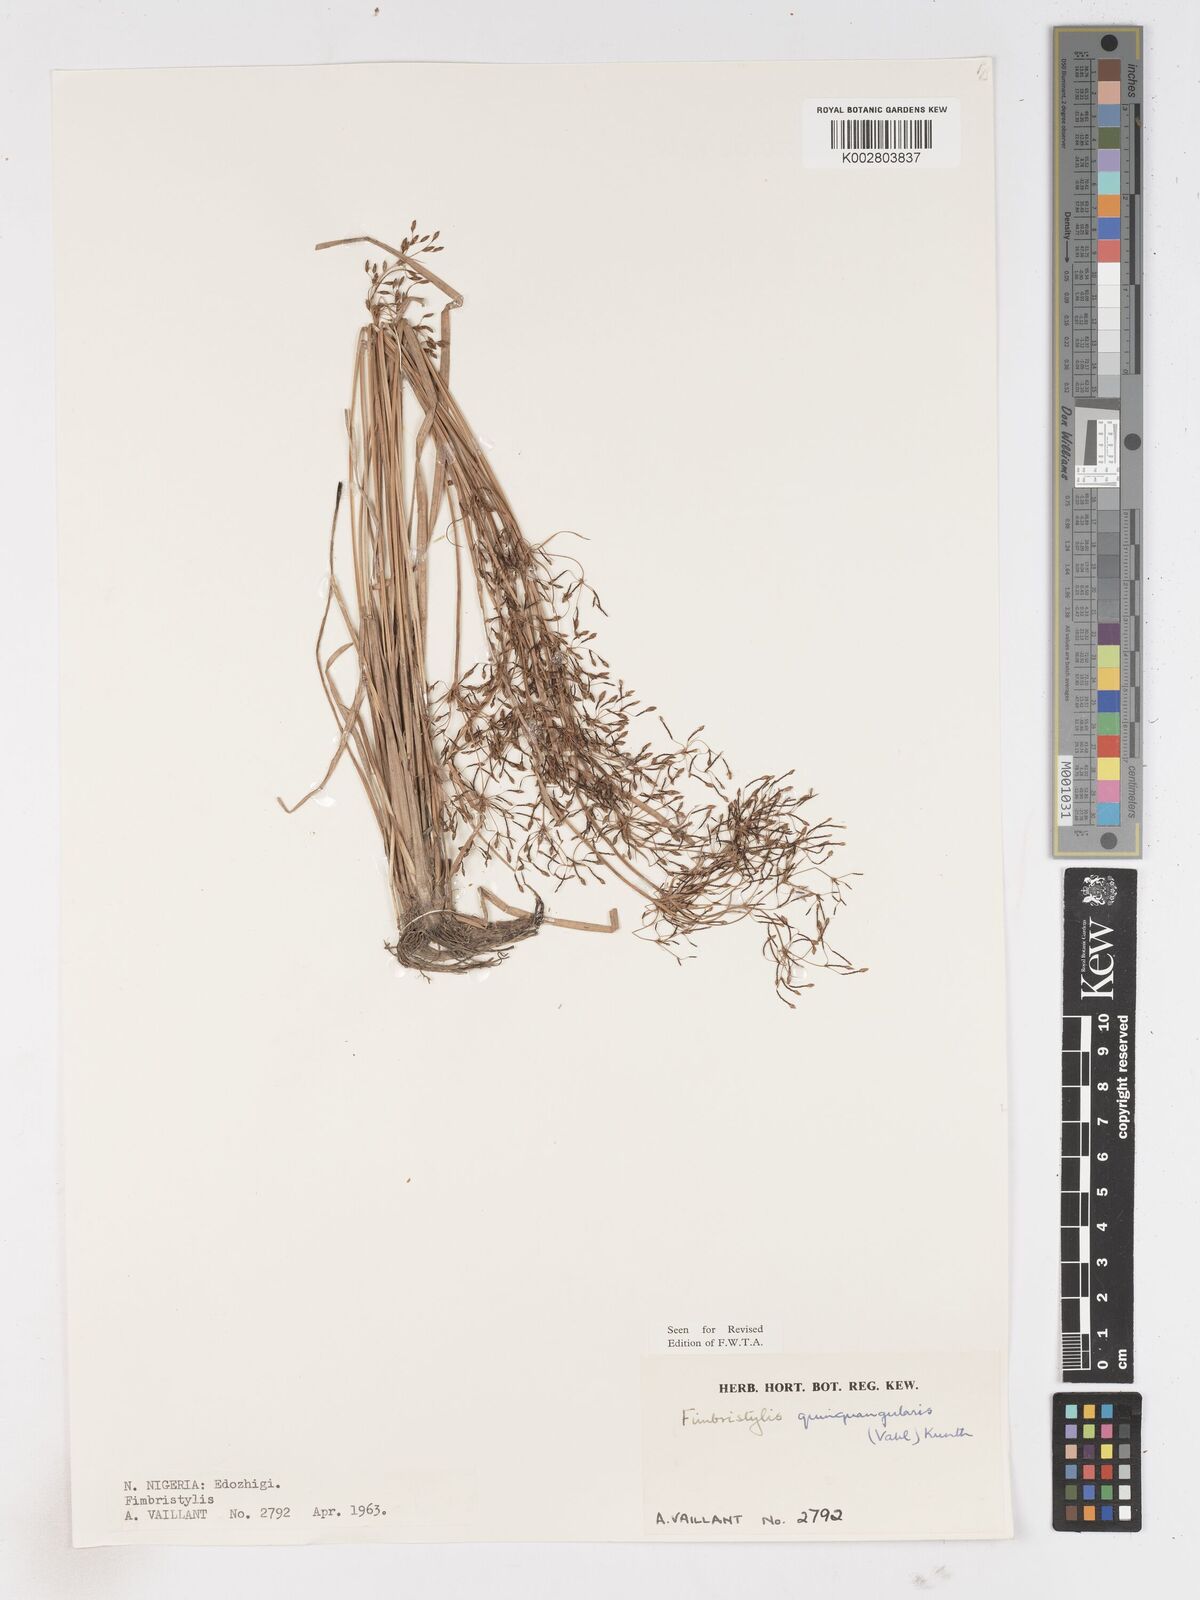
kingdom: Plantae
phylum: Tracheophyta
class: Liliopsida
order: Poales
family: Cyperaceae
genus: Fimbristylis
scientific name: Fimbristylis quinquangularis
